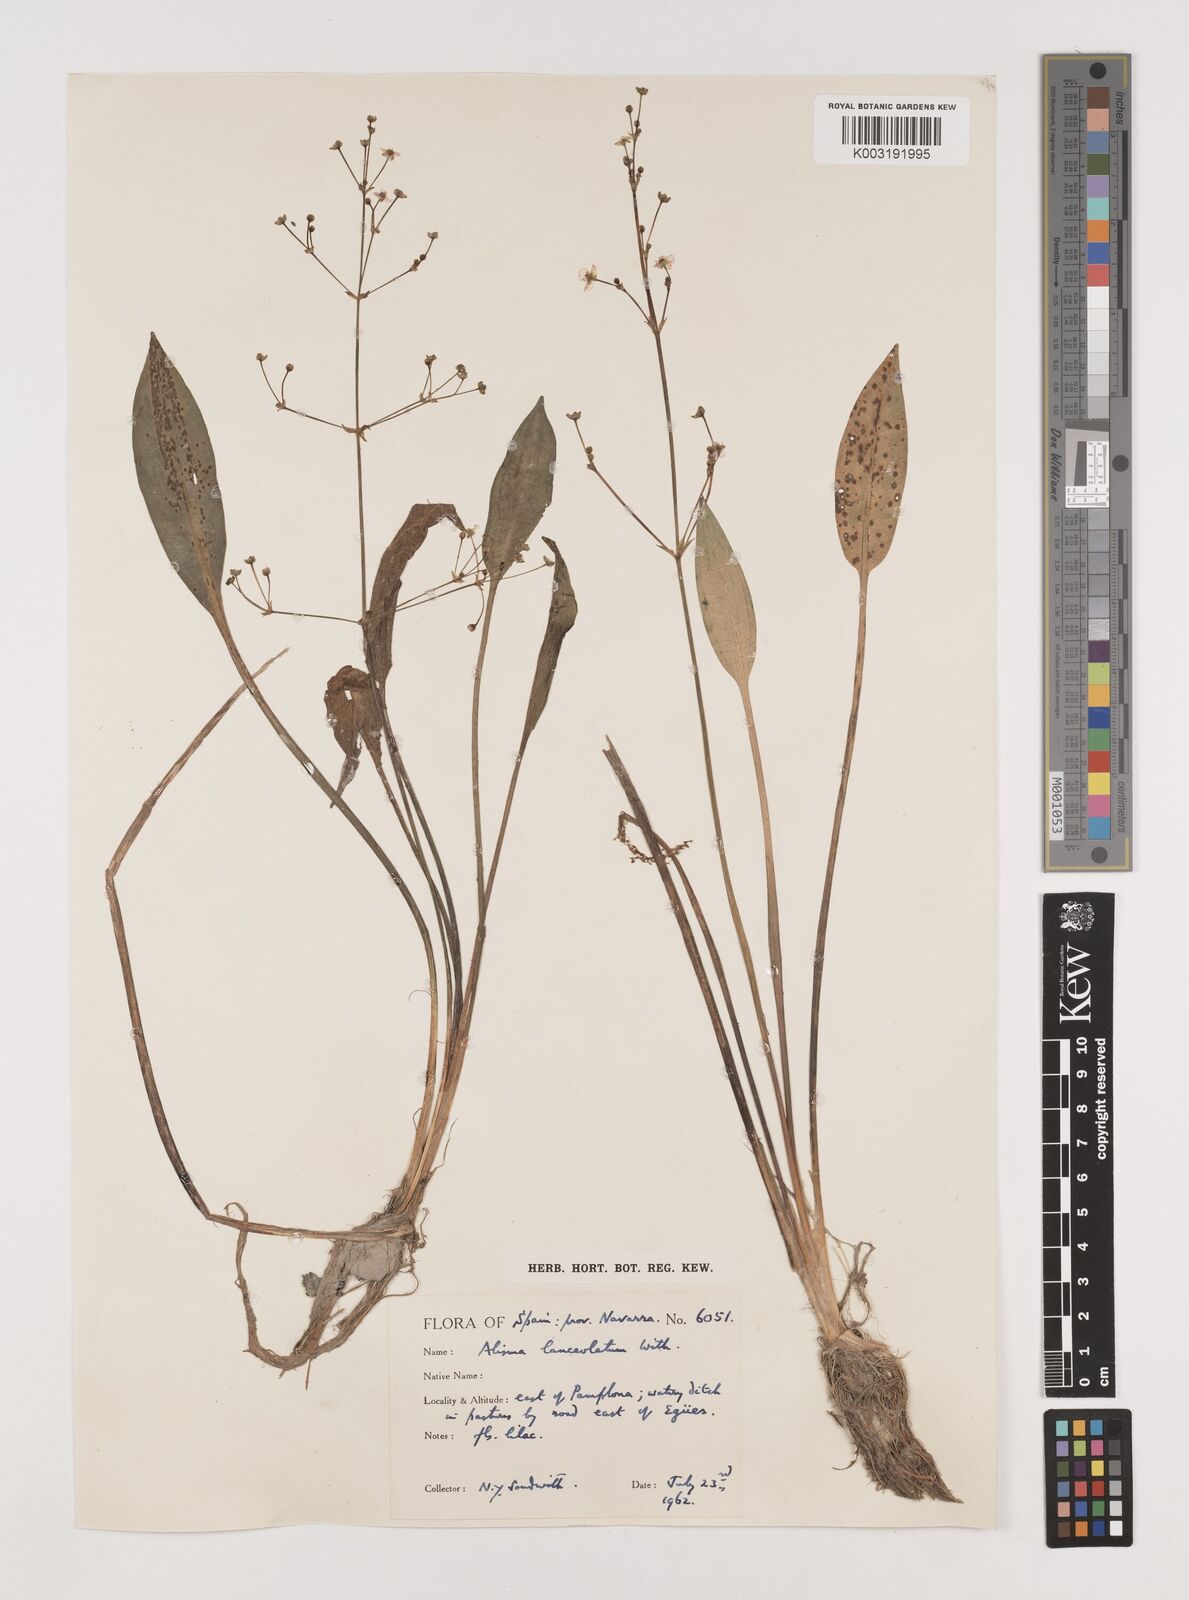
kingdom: Plantae
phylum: Tracheophyta
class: Liliopsida
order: Alismatales
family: Alismataceae
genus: Alisma
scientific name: Alisma lanceolatum
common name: Narrow-leaved water-plantain
